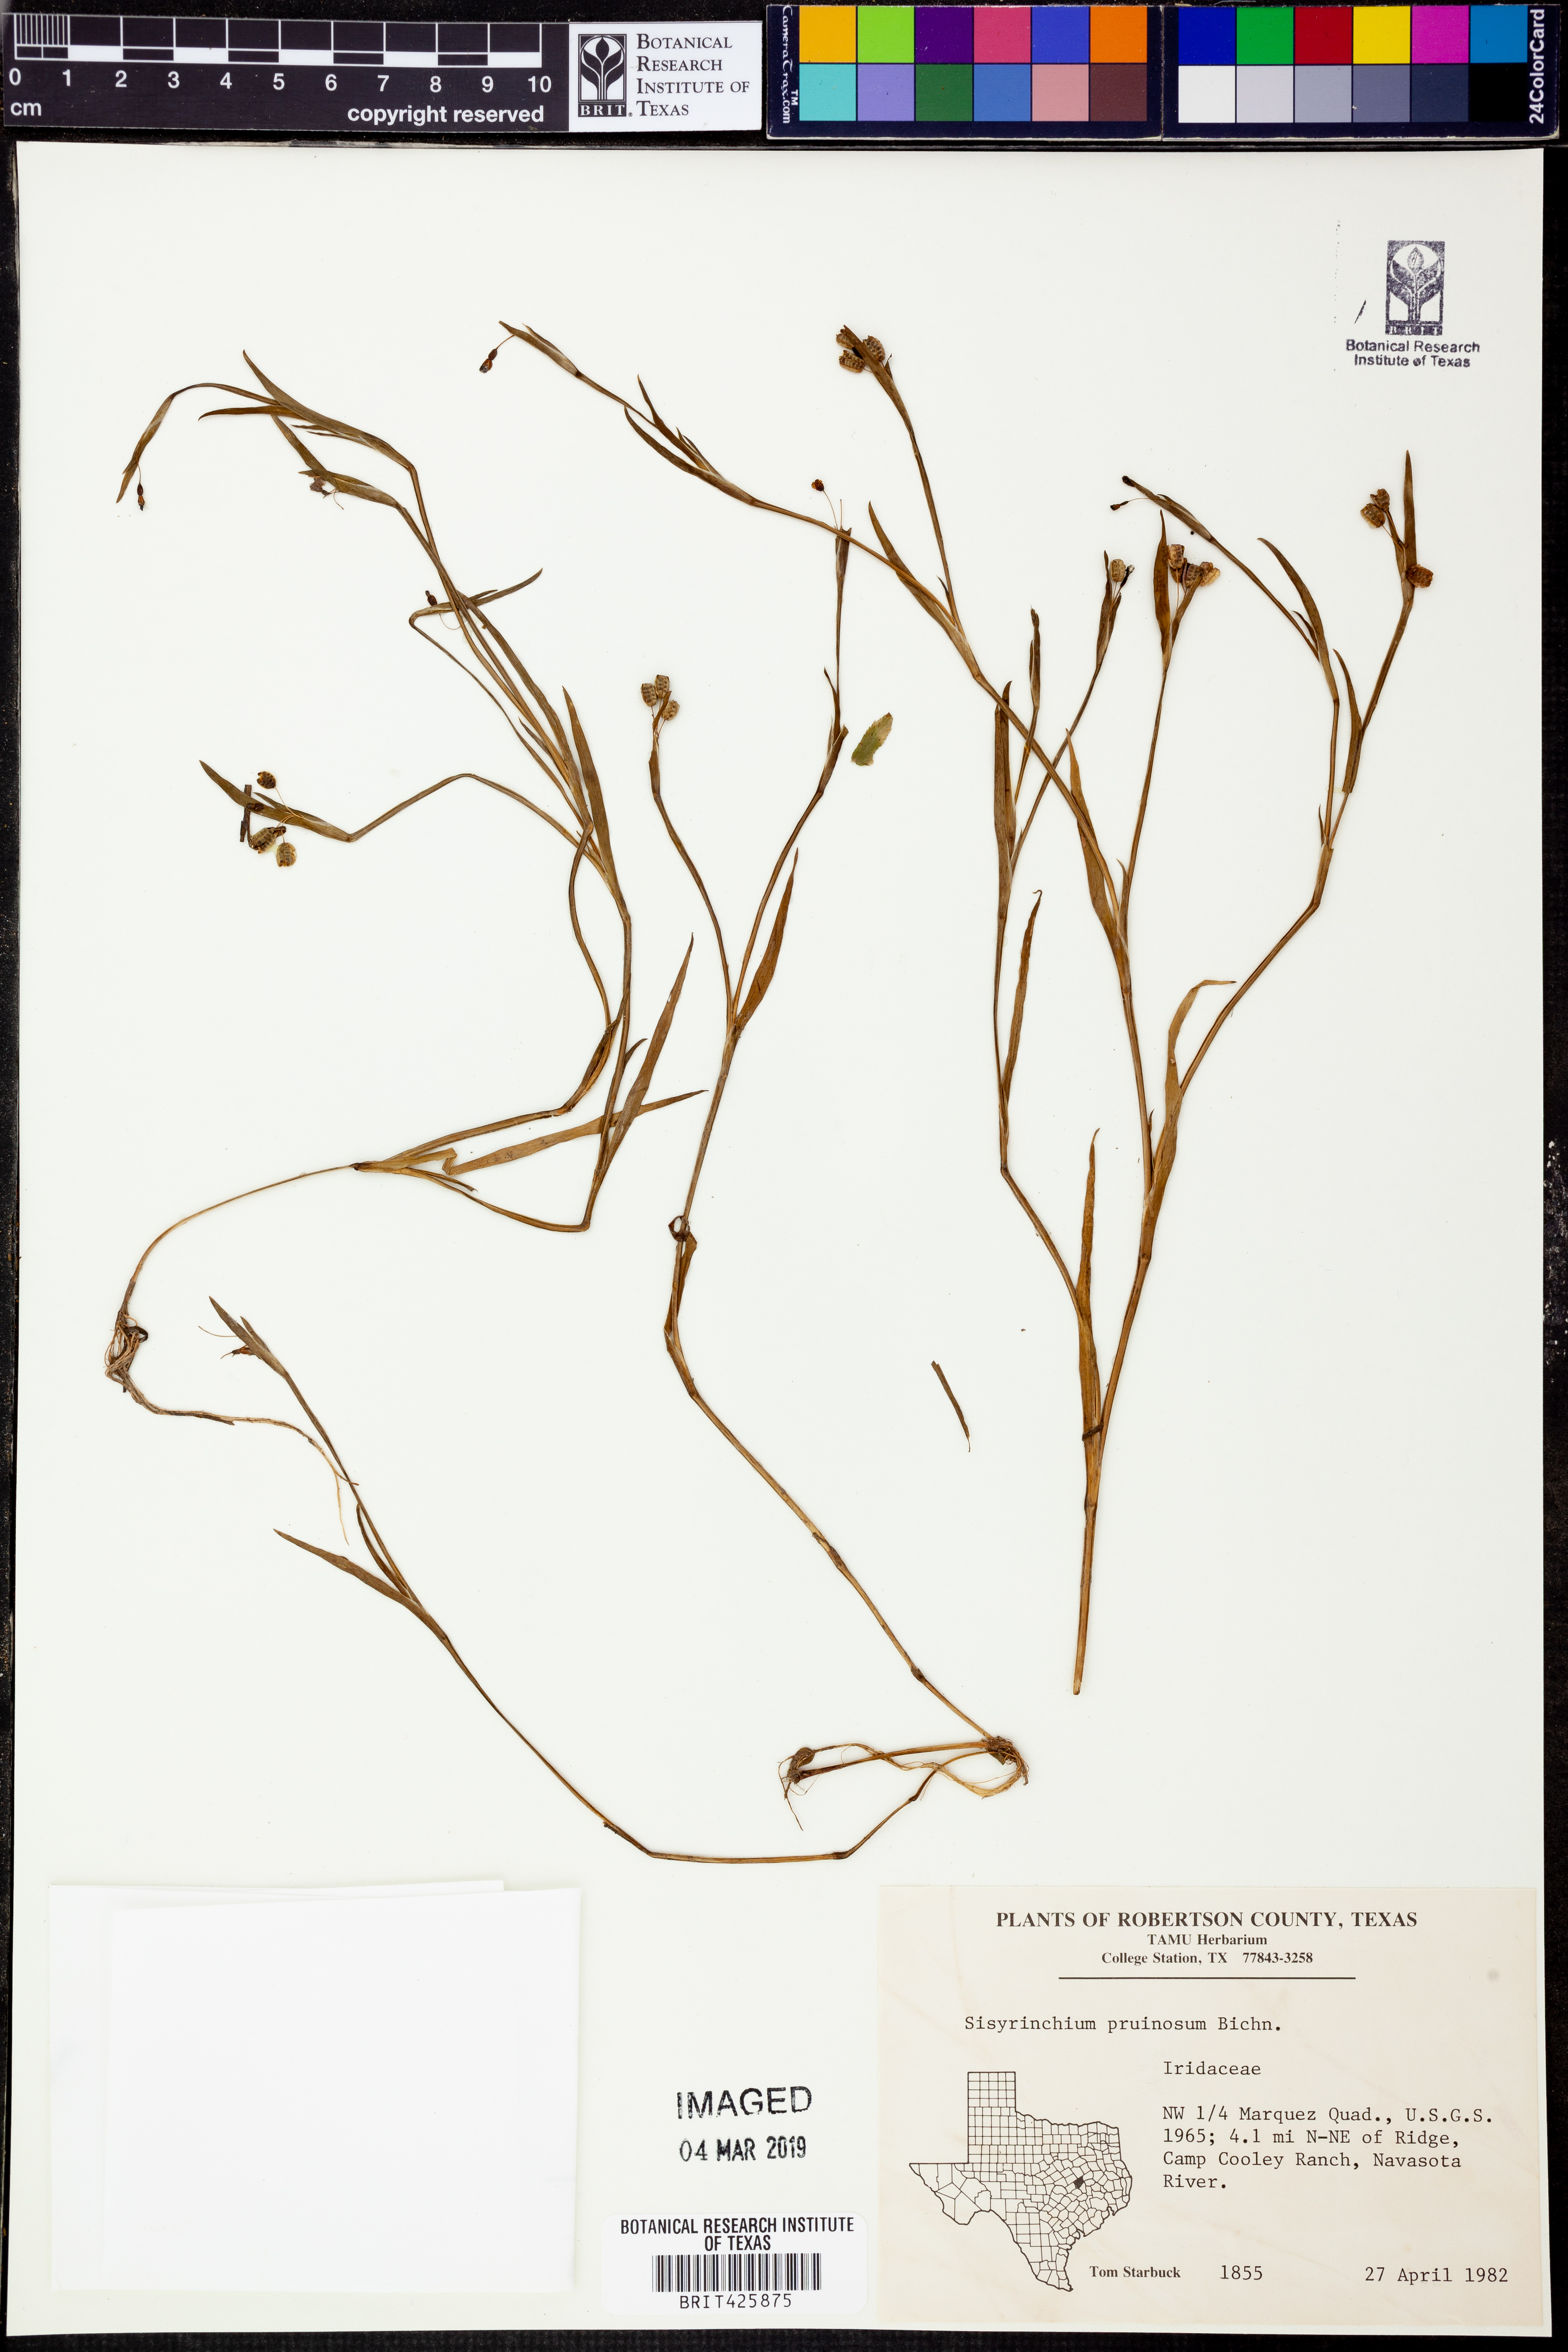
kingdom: Plantae
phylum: Tracheophyta
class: Liliopsida
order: Asparagales
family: Iridaceae
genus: Sisyrinchium
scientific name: Sisyrinchium minus
